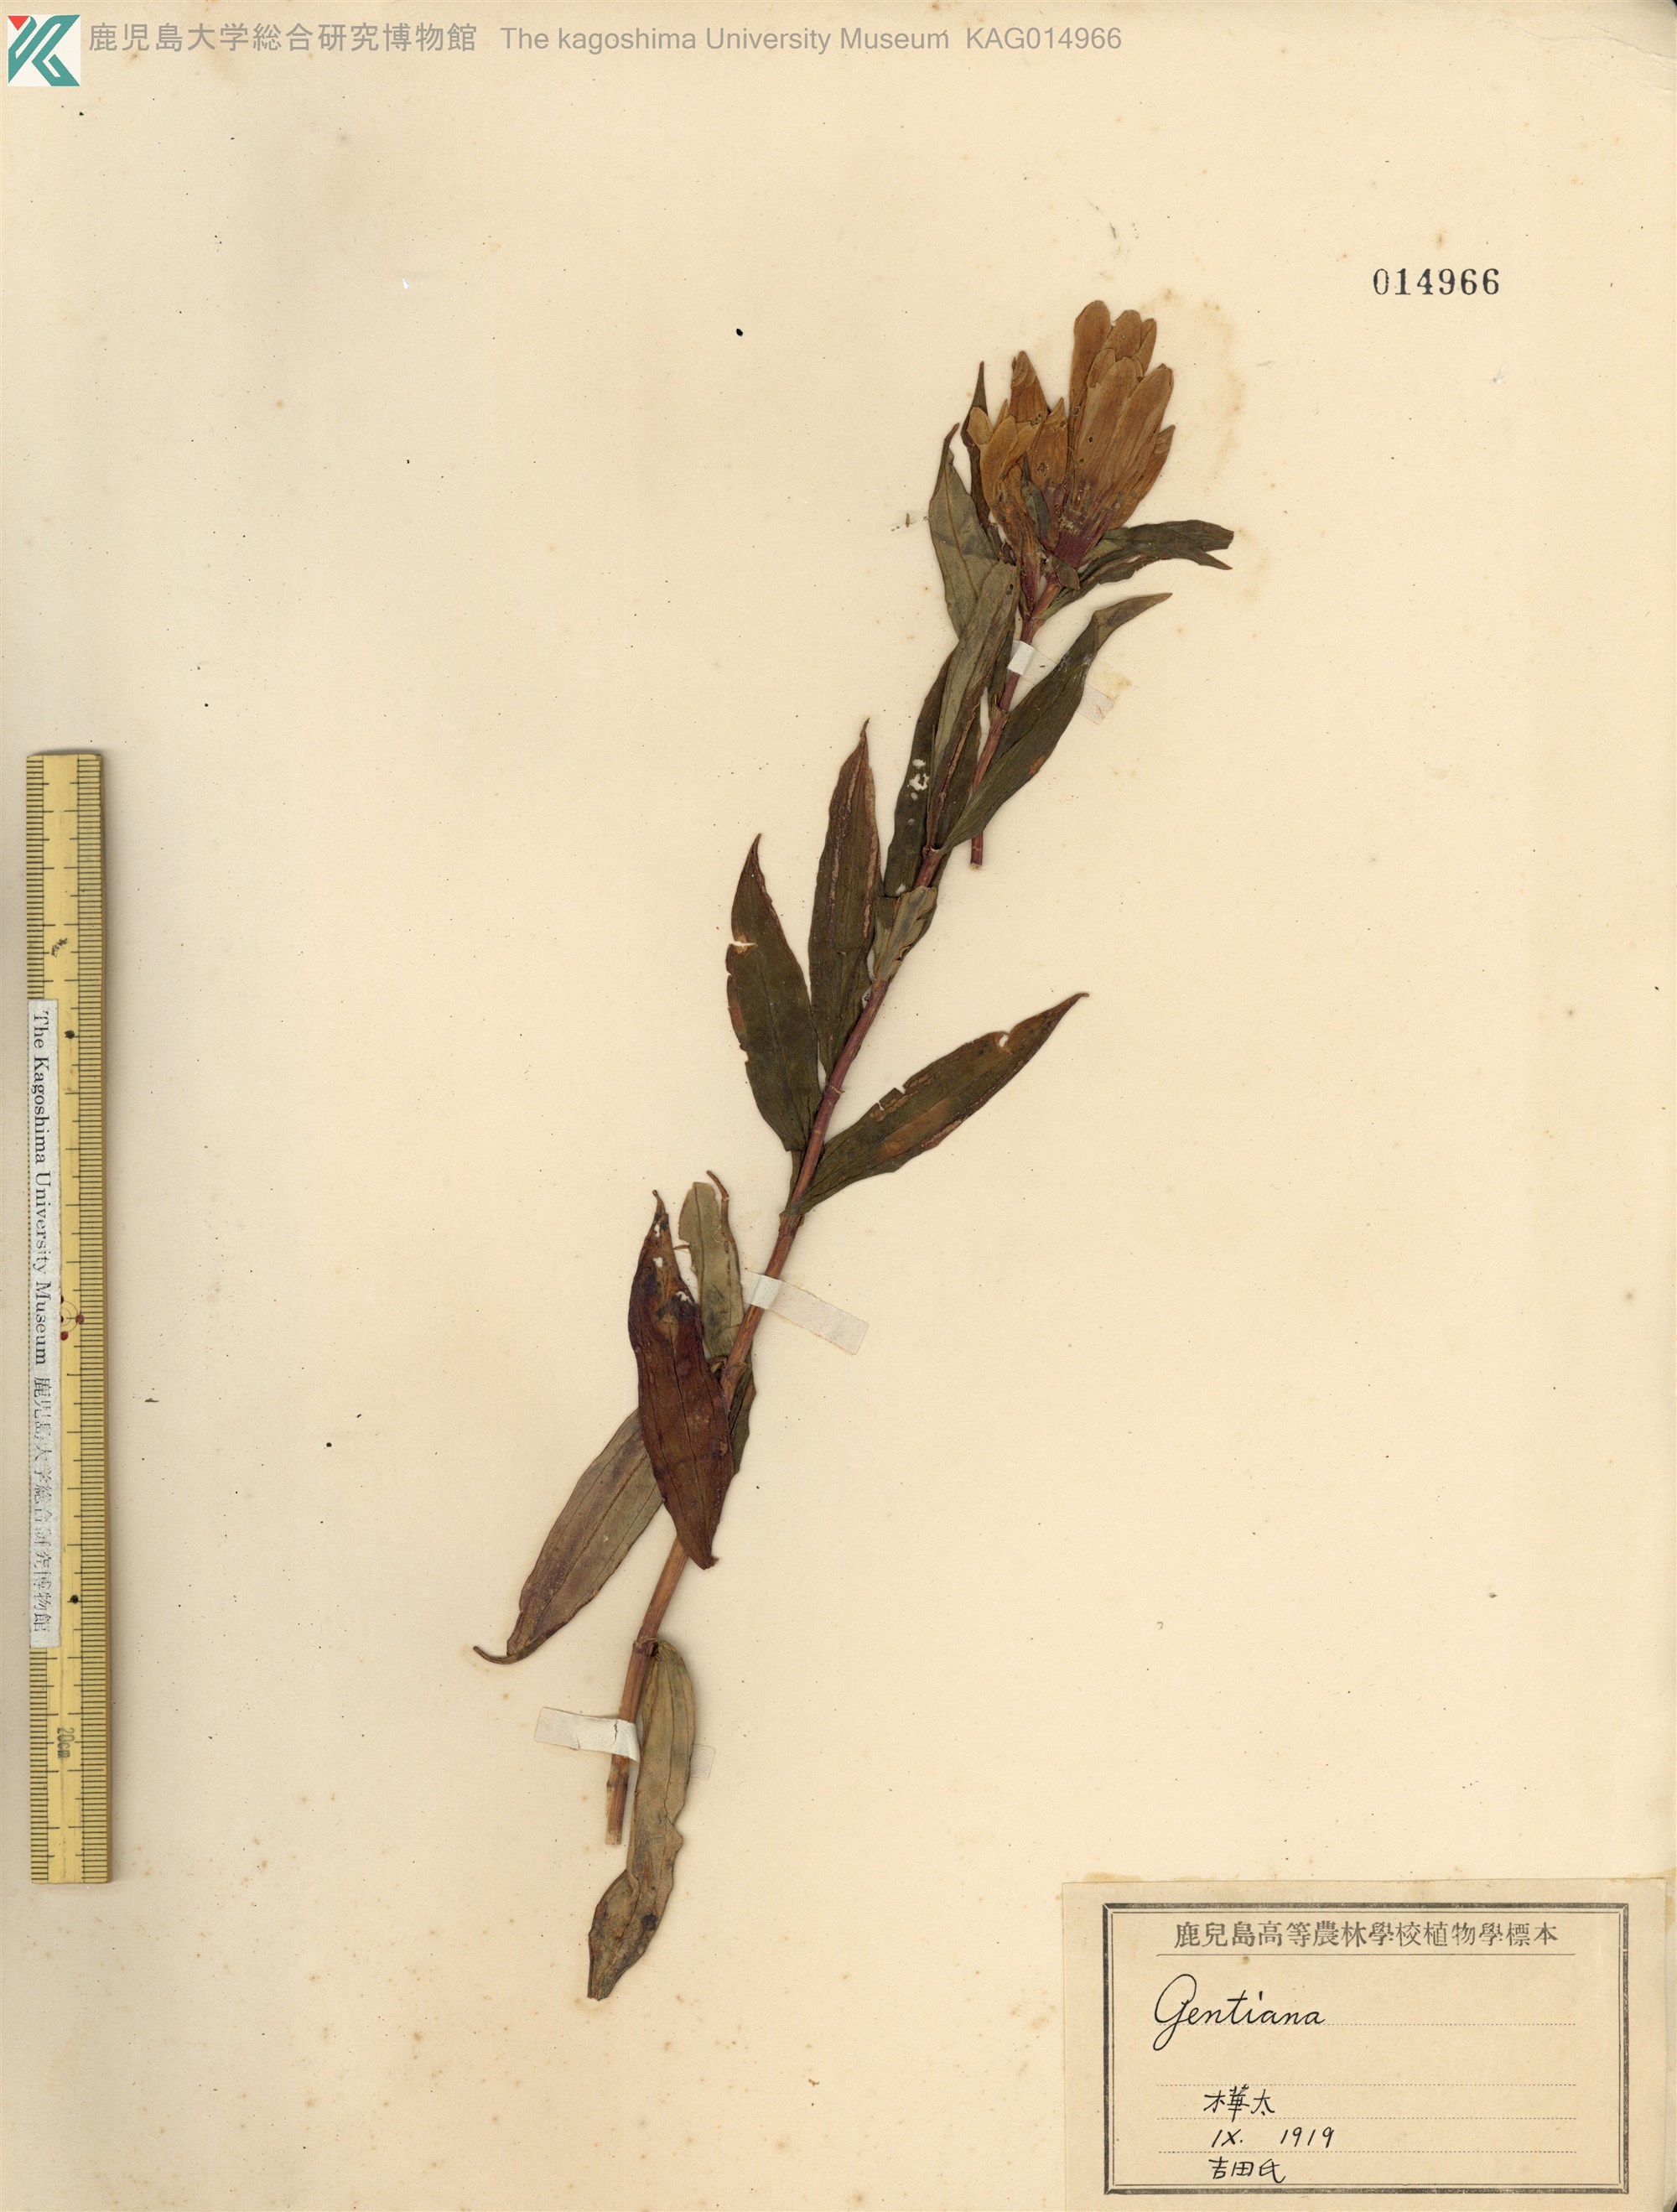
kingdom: Plantae
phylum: Tracheophyta
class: Magnoliopsida
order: Gentianales
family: Gentianaceae
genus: Gentiana
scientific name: Gentiana triflora
